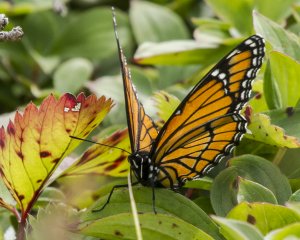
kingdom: Animalia
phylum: Arthropoda
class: Insecta
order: Lepidoptera
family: Nymphalidae
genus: Limenitis
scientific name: Limenitis archippus
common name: Viceroy
